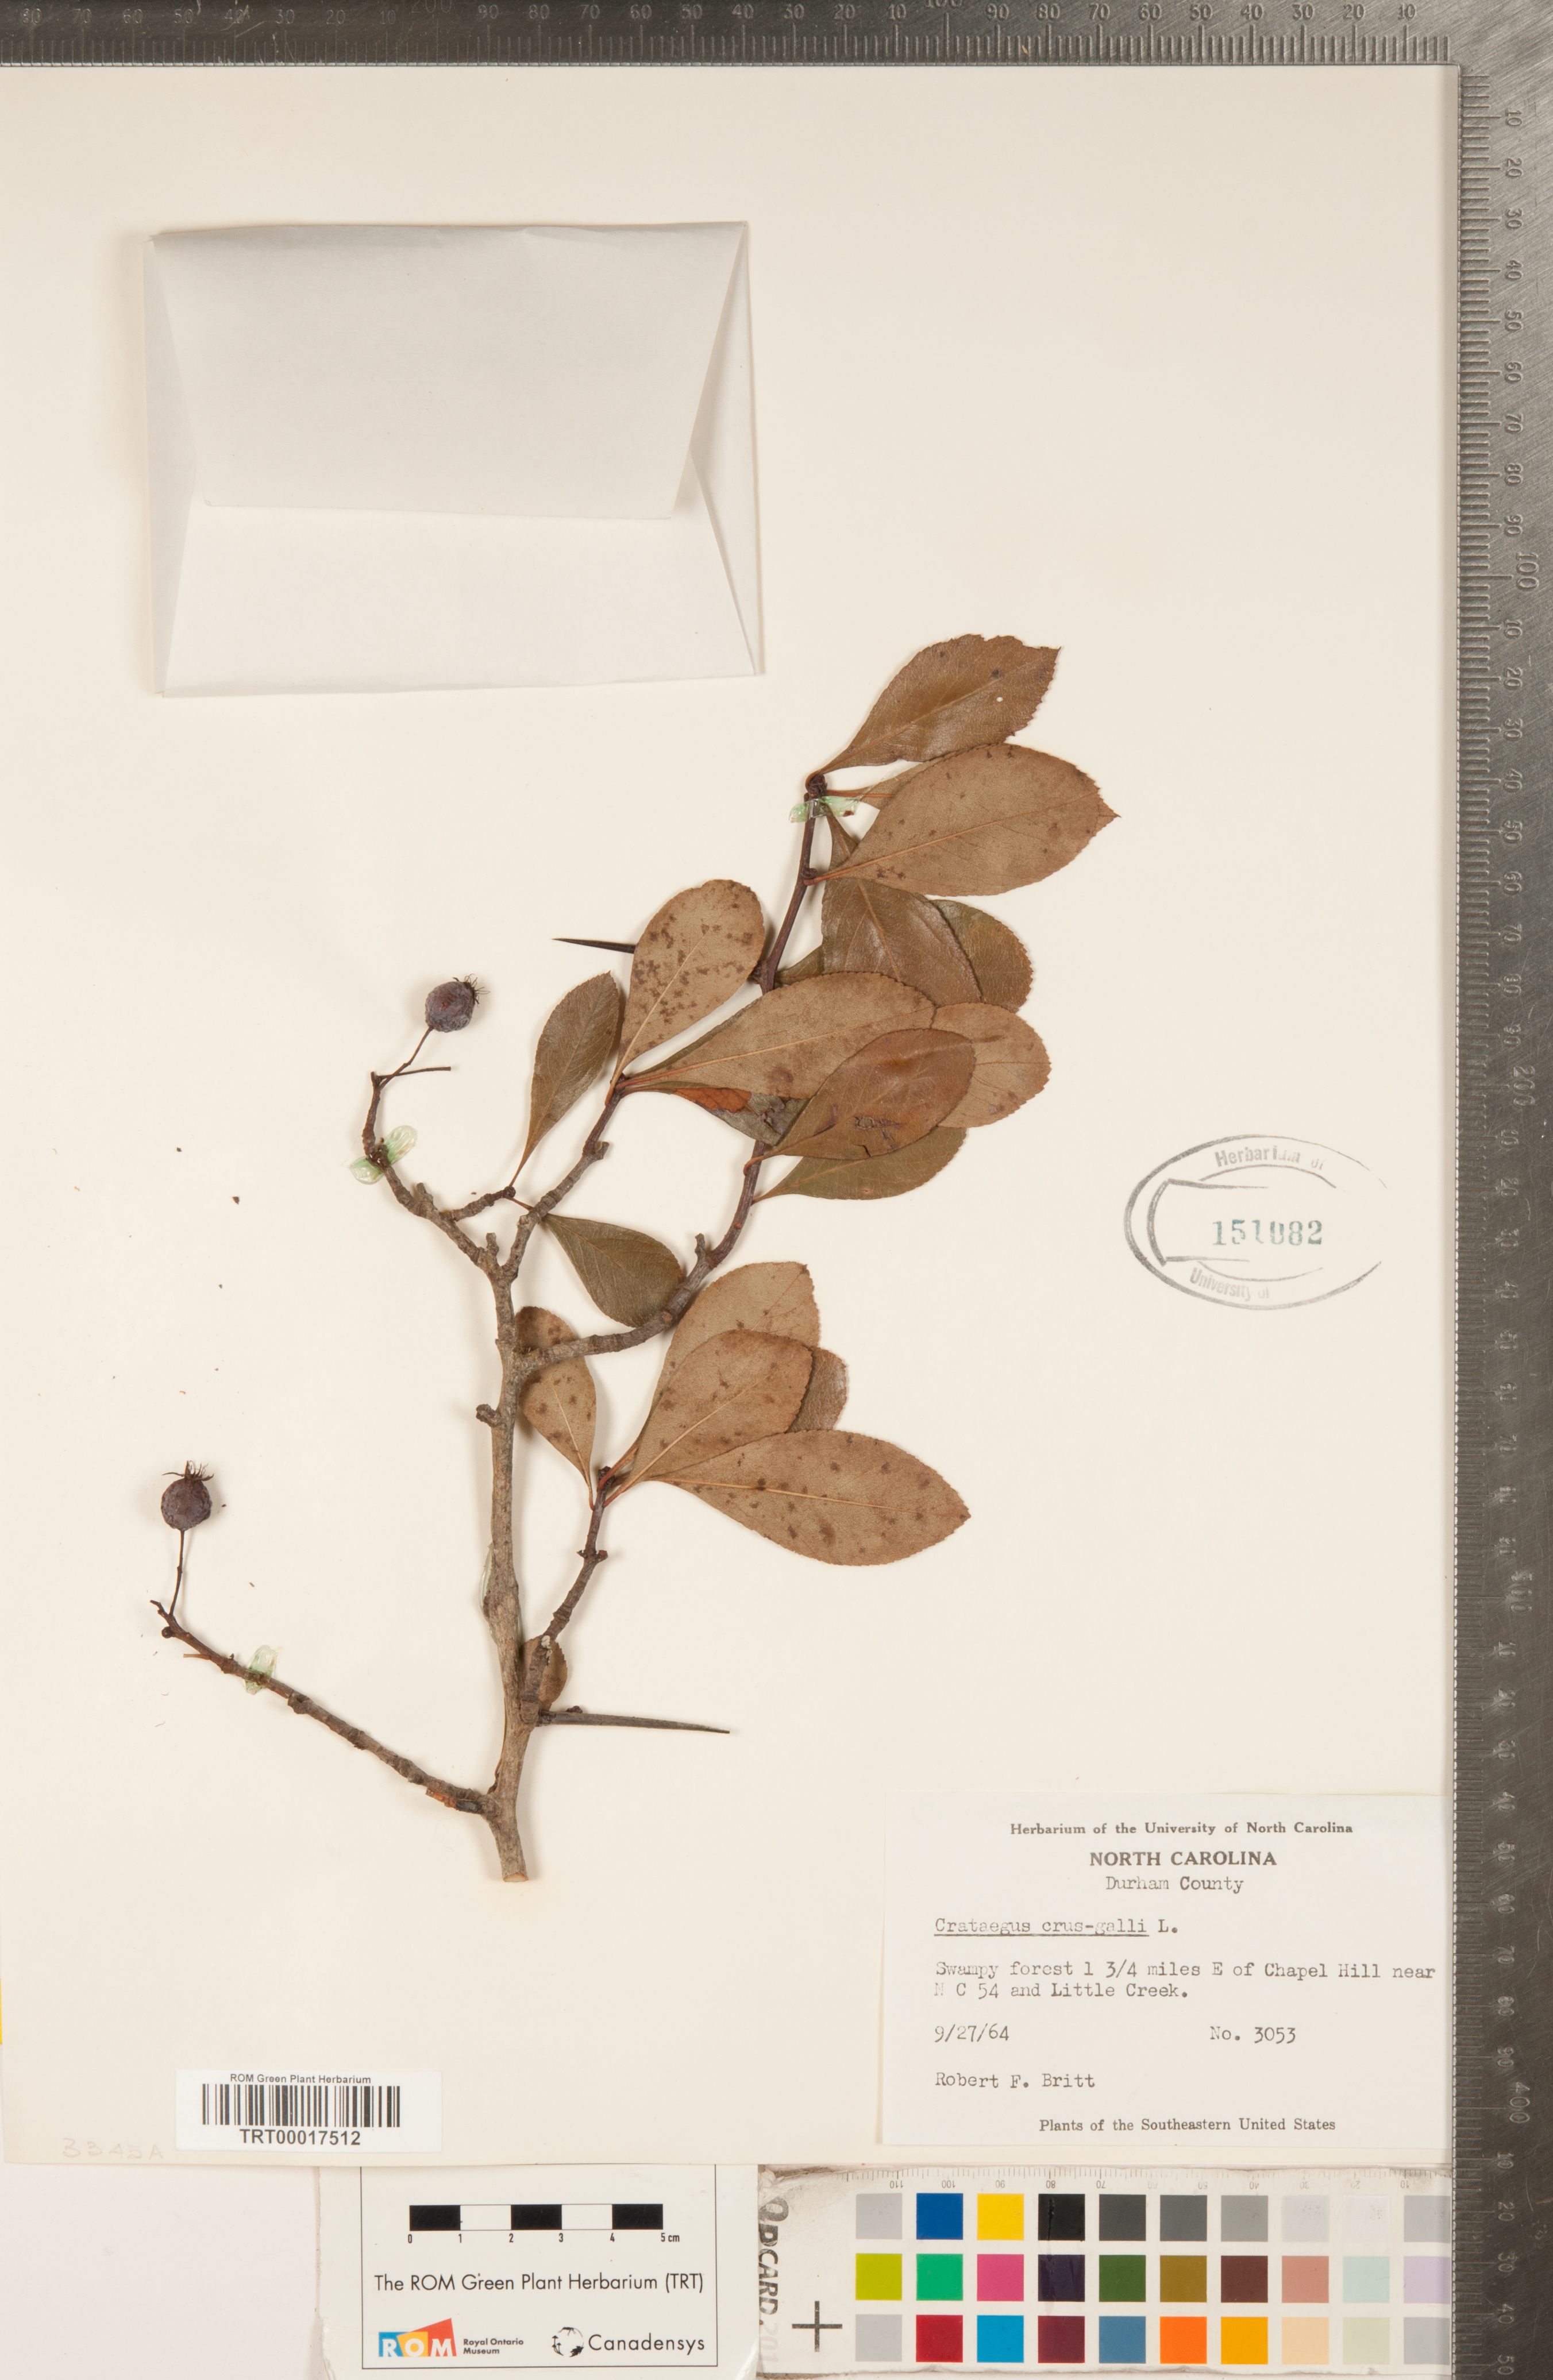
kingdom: Plantae
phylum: Tracheophyta
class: Magnoliopsida
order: Rosales
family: Rosaceae
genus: Crataegus
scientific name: Crataegus crus-galli
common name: Cockspurthorn
